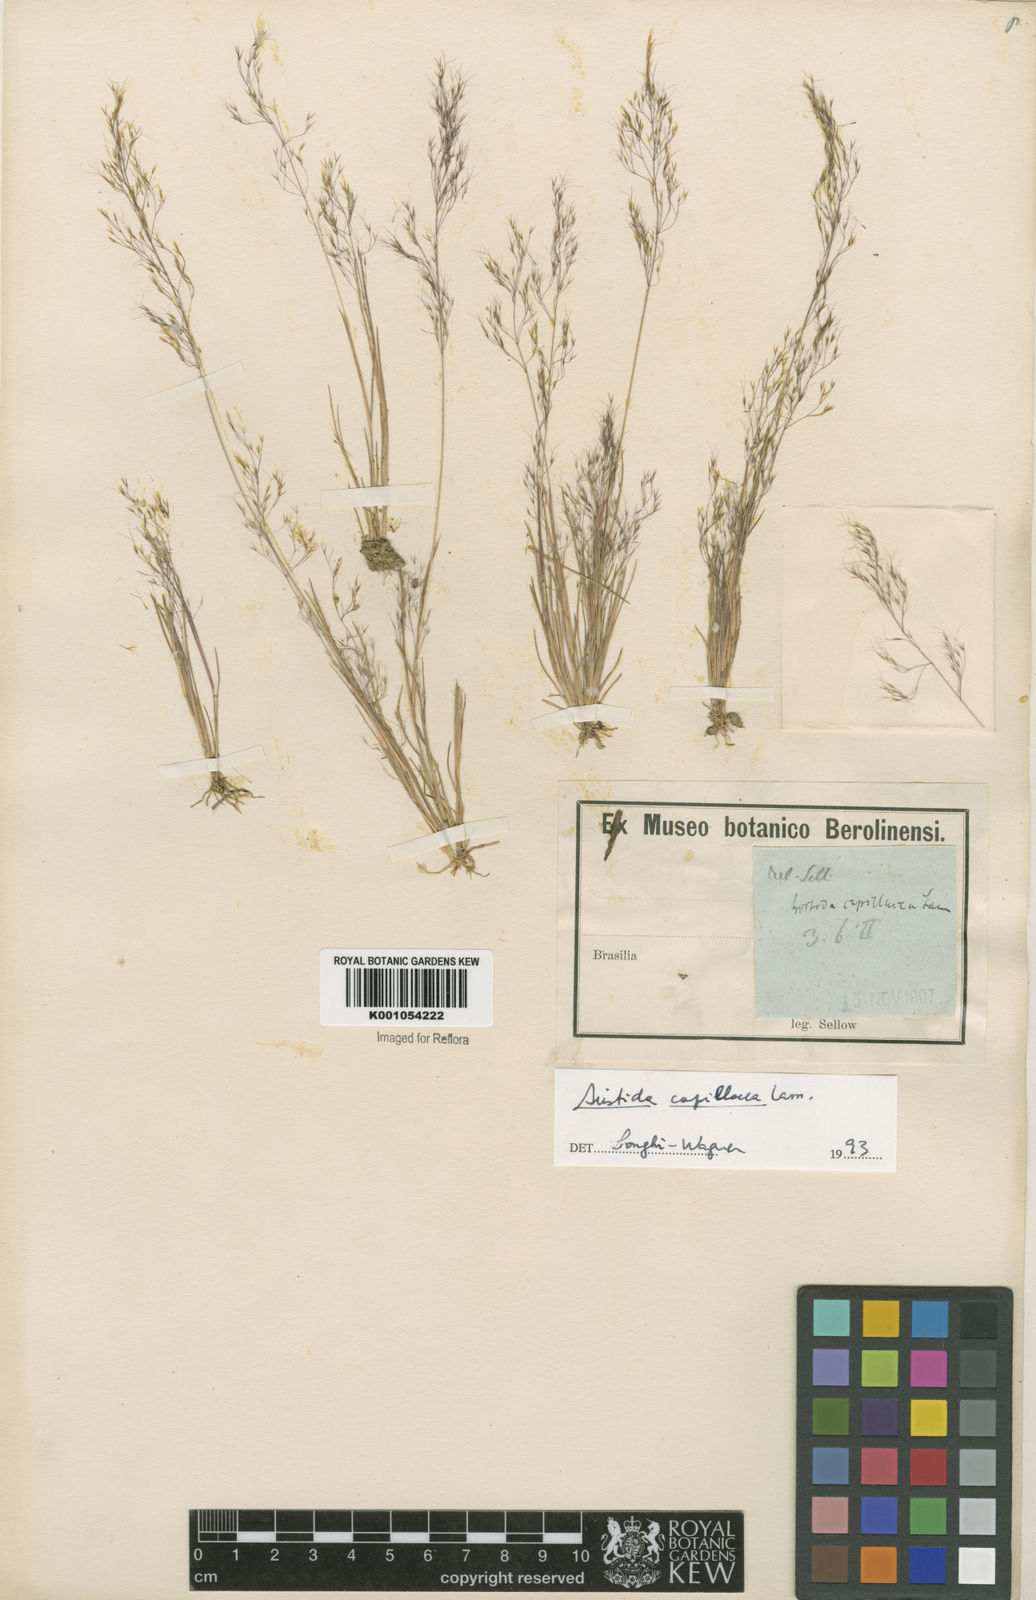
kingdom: Plantae
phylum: Tracheophyta
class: Liliopsida
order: Poales
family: Poaceae
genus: Aristida
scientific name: Aristida capillacea
